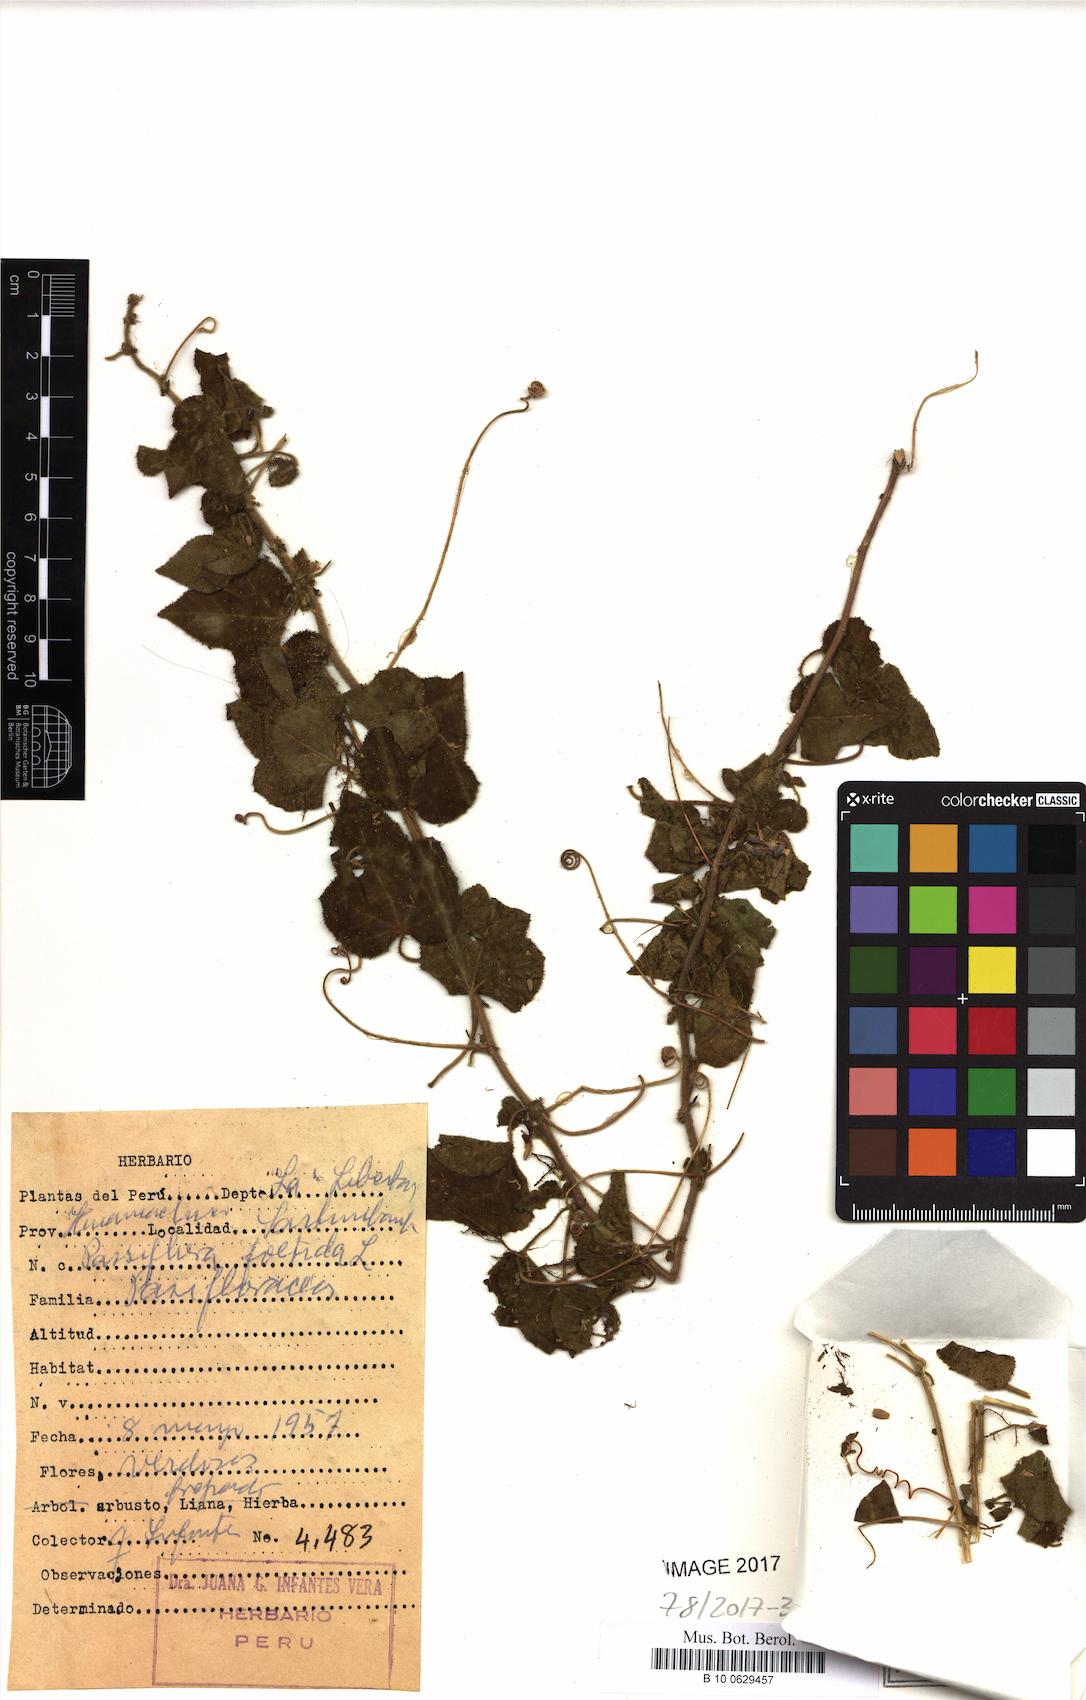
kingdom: Plantae
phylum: Tracheophyta
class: Magnoliopsida
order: Malpighiales
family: Passifloraceae
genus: Passiflora
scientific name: Passiflora foetida
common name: Fetid passionflower
